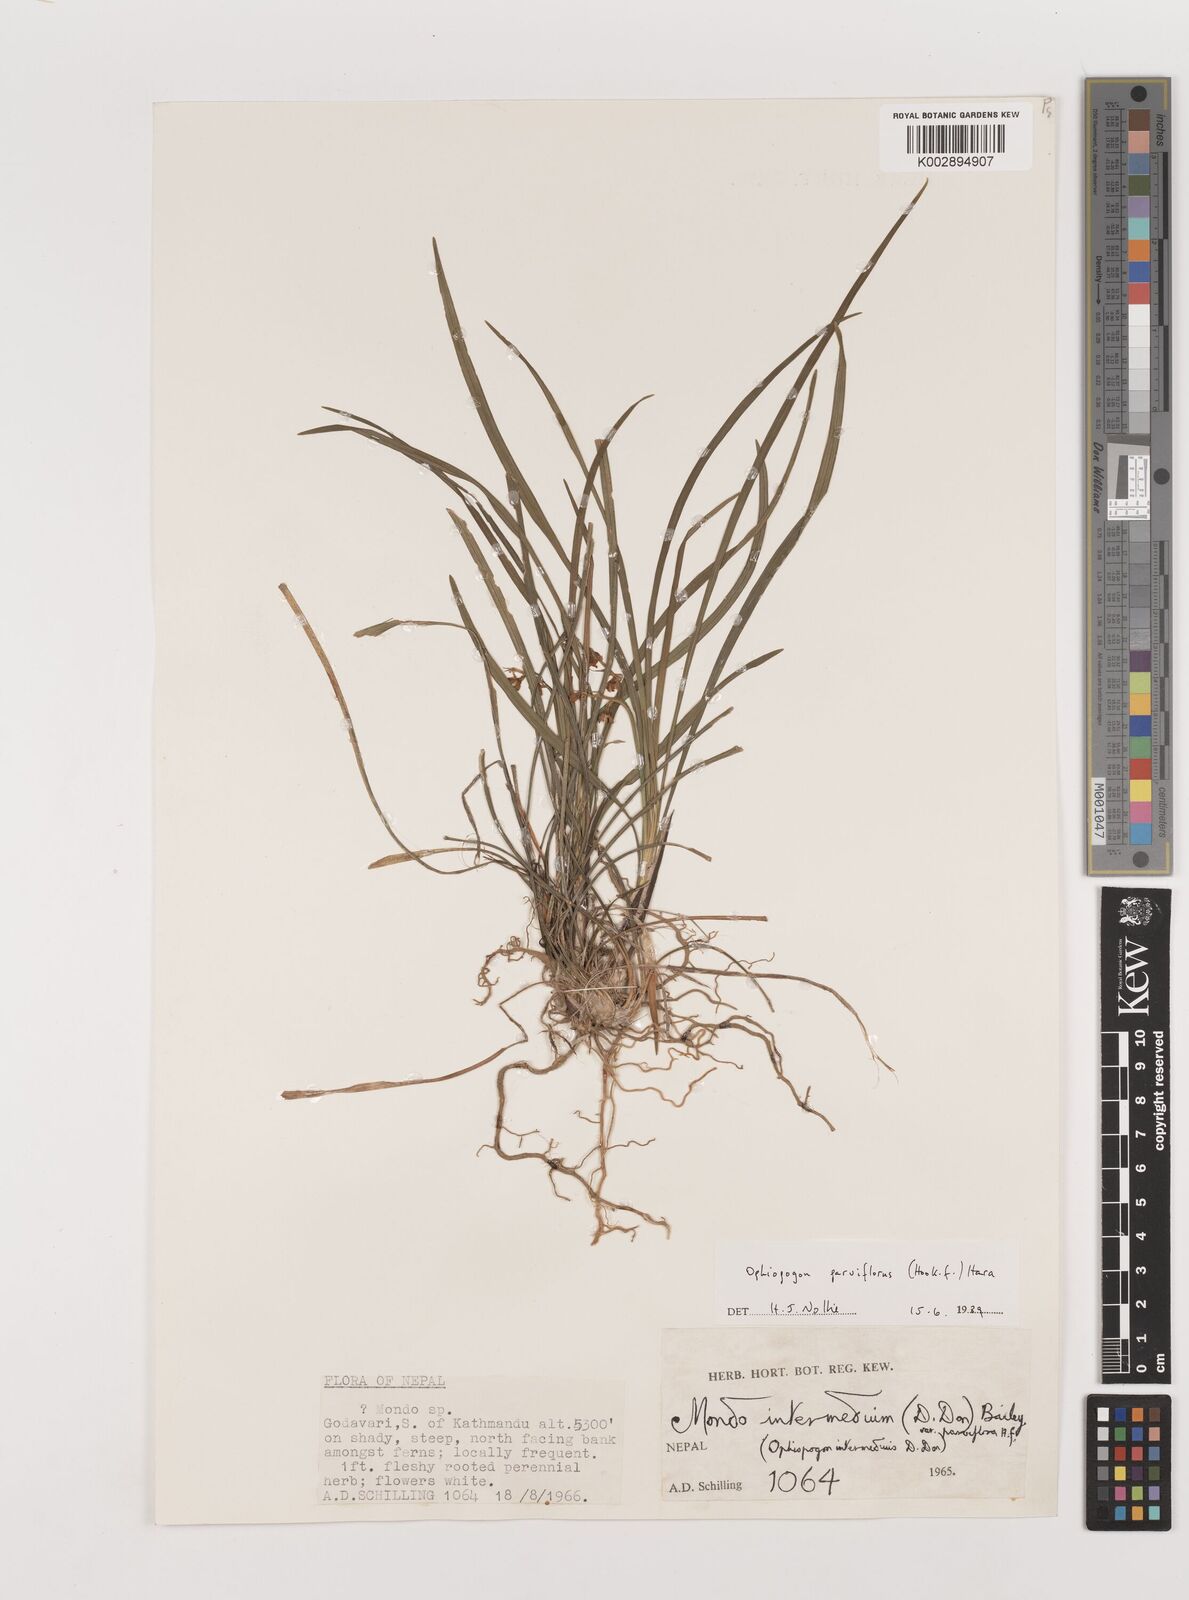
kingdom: Plantae
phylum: Tracheophyta
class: Liliopsida
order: Asparagales
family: Asparagaceae
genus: Ophiopogon
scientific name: Ophiopogon intermedius
